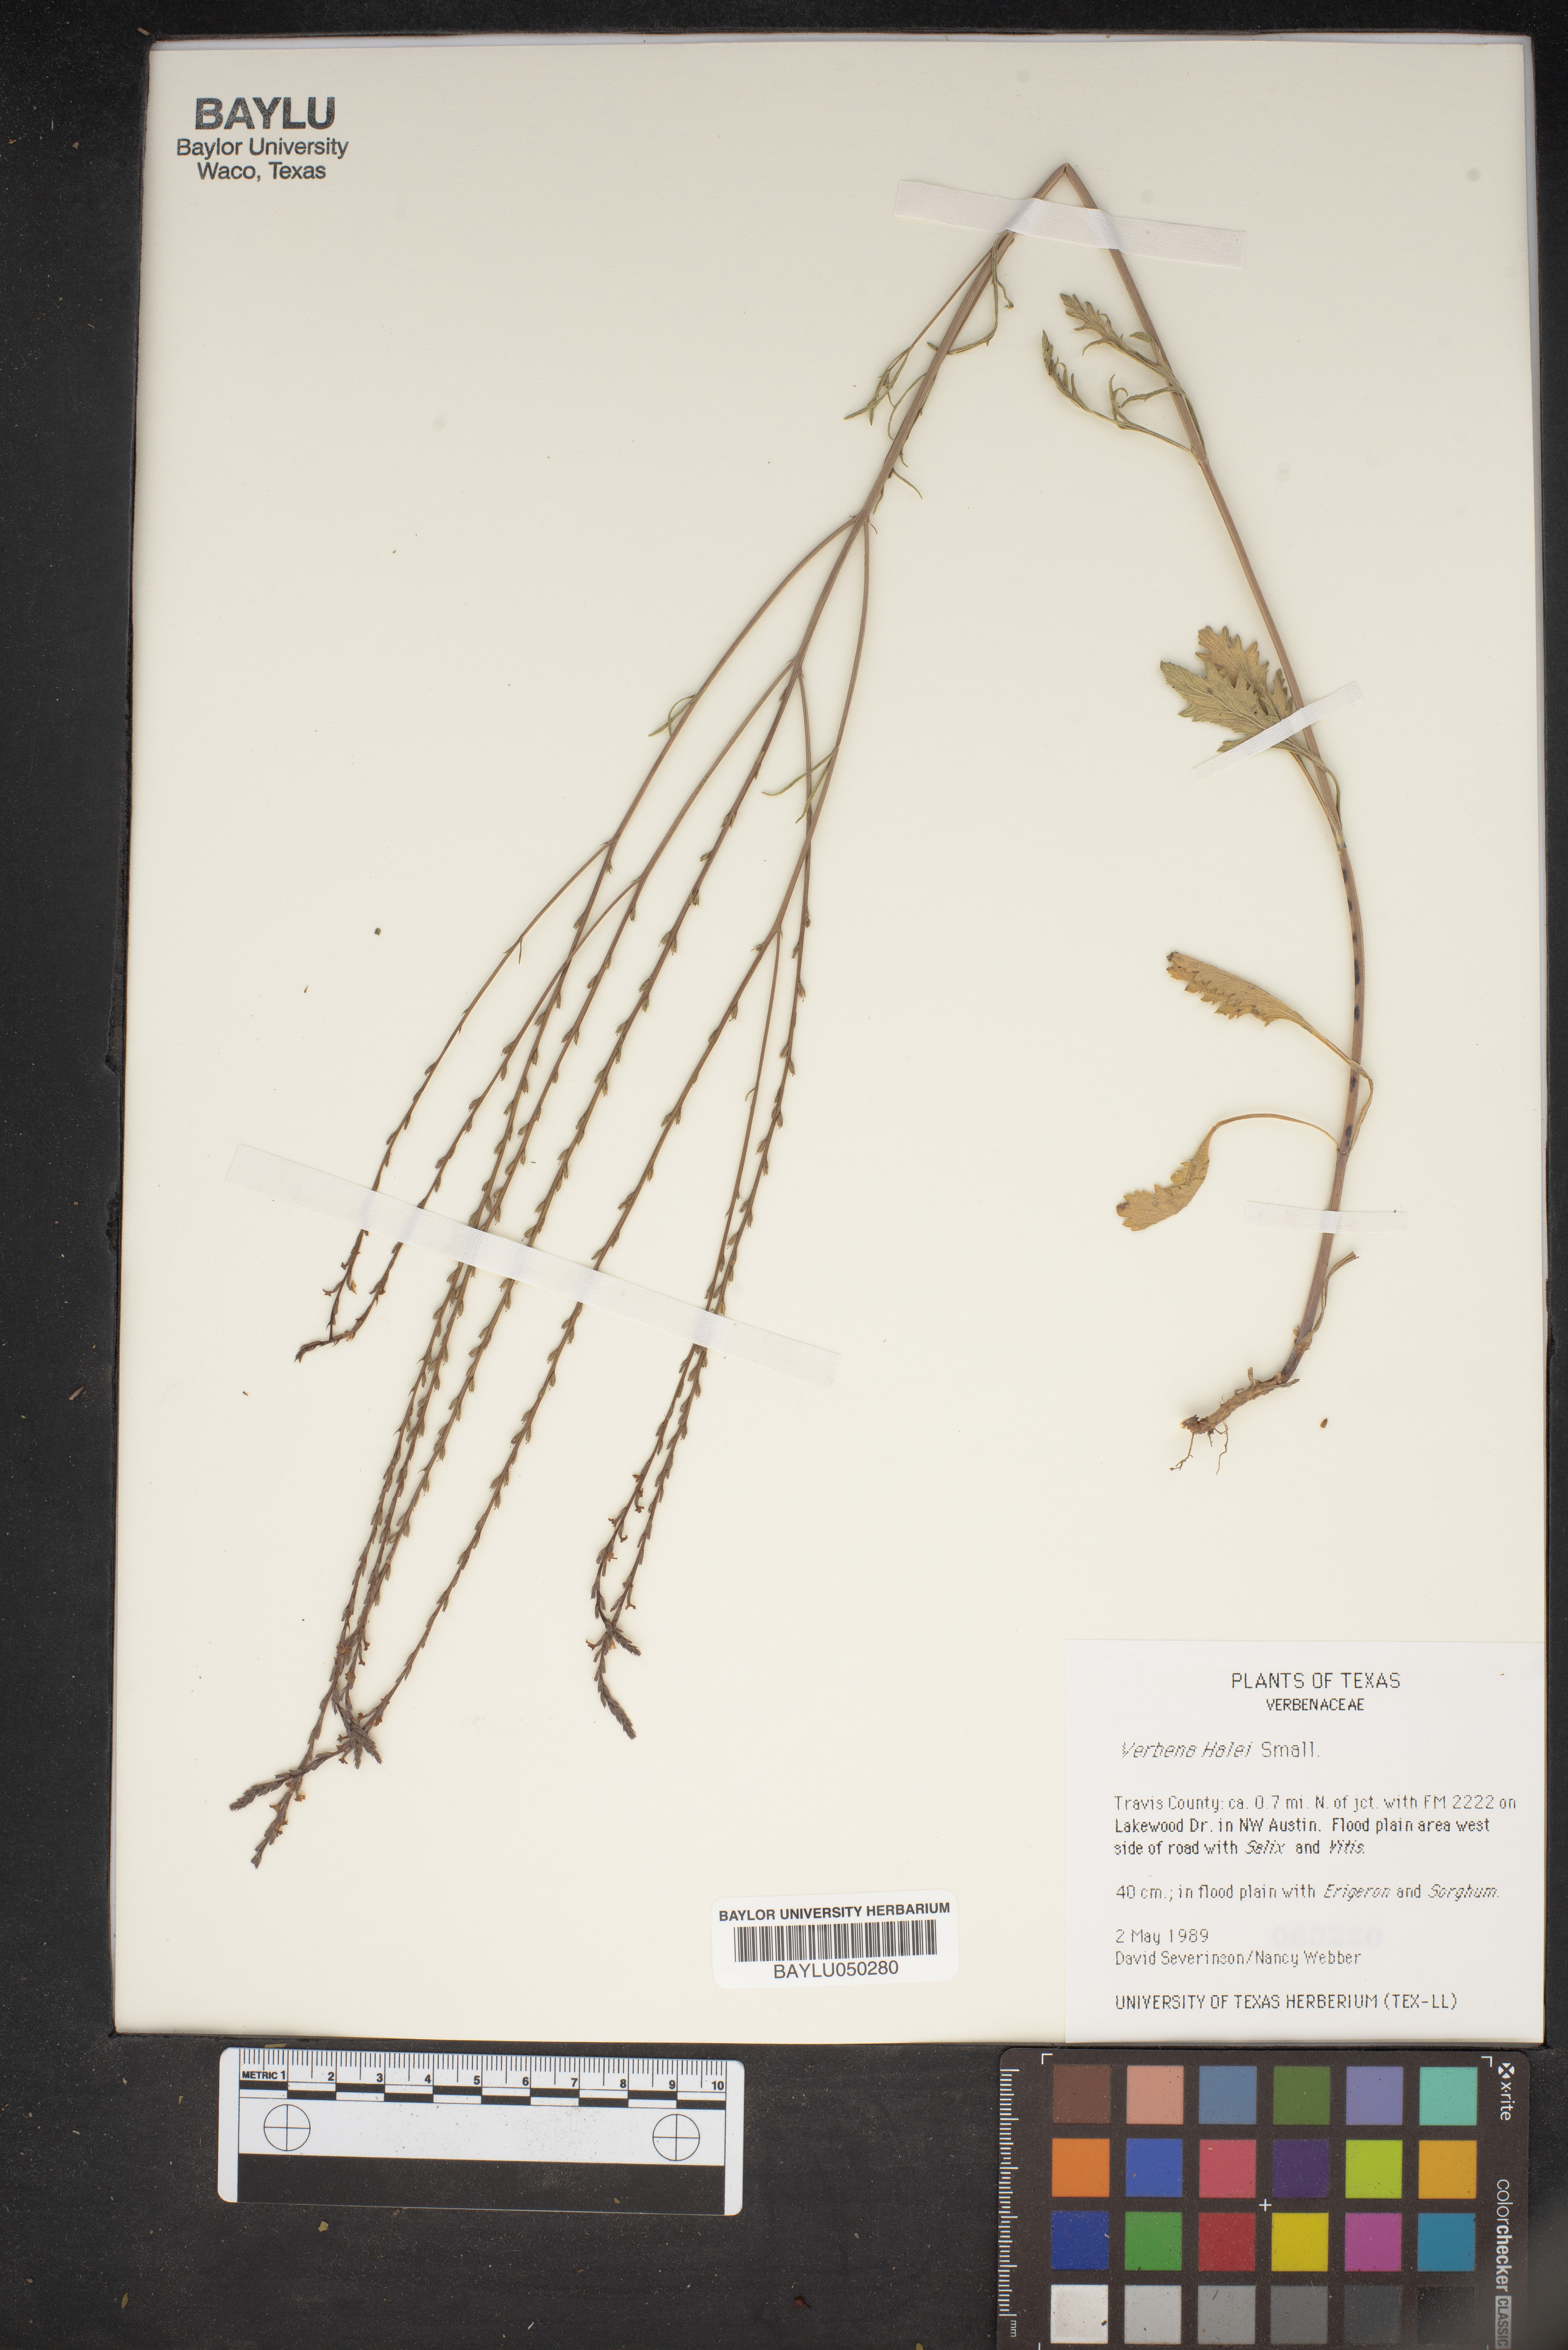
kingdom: Plantae
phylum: Tracheophyta
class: Magnoliopsida
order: Lamiales
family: Verbenaceae
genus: Verbena
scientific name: Verbena halei
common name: Texas vervain
